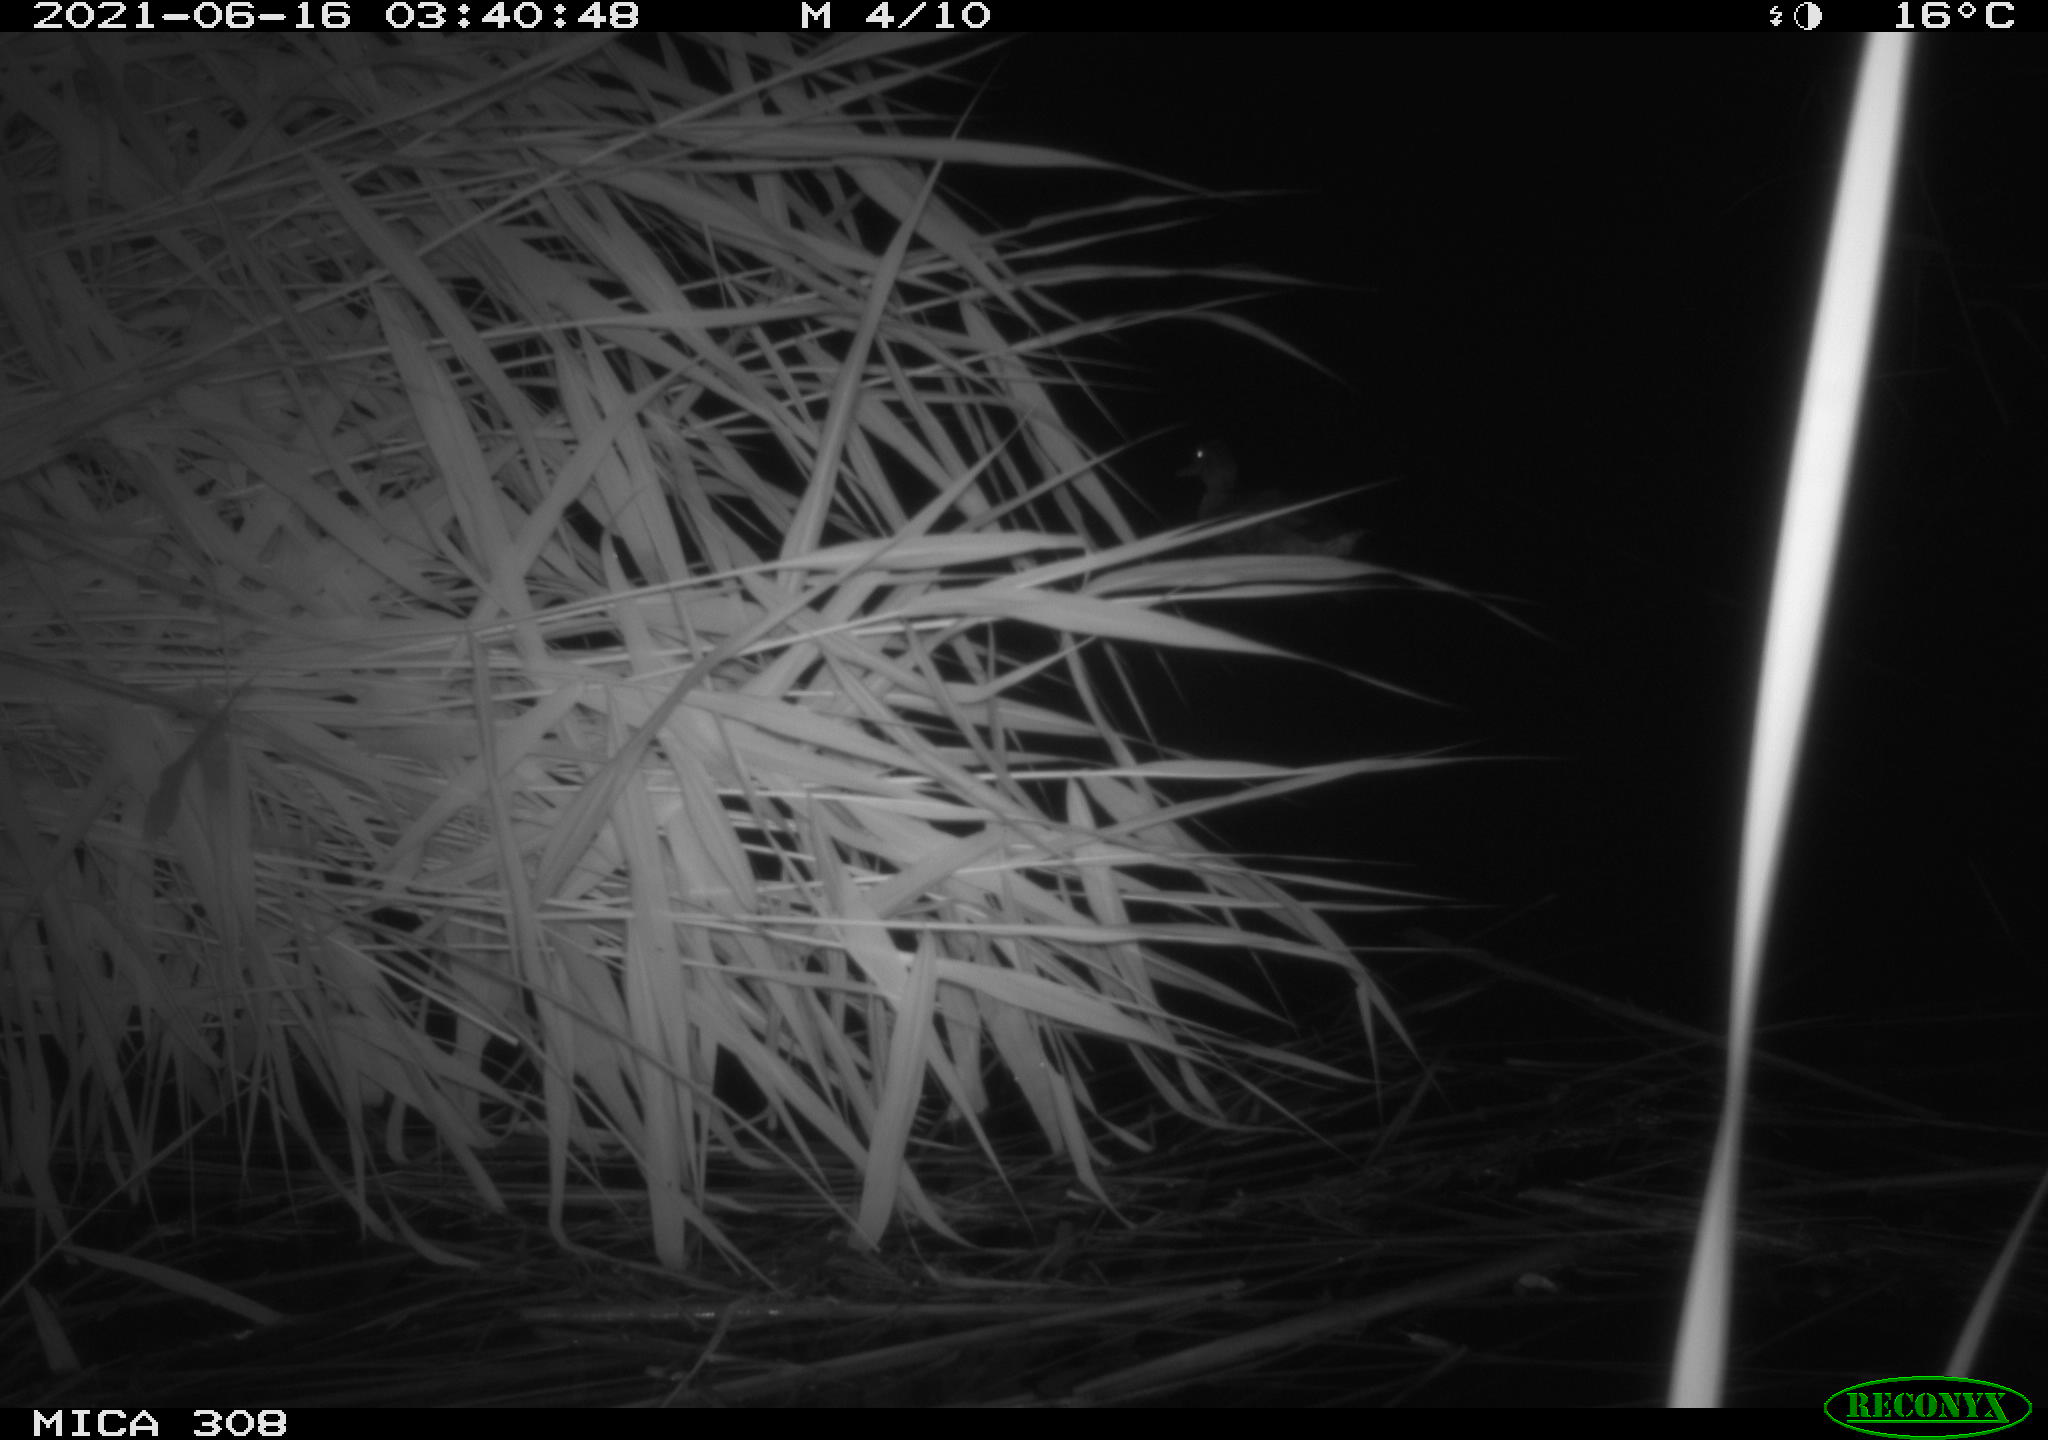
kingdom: Animalia
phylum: Chordata
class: Aves
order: Anseriformes
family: Anatidae
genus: Anas
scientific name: Anas platyrhynchos
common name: Mallard
